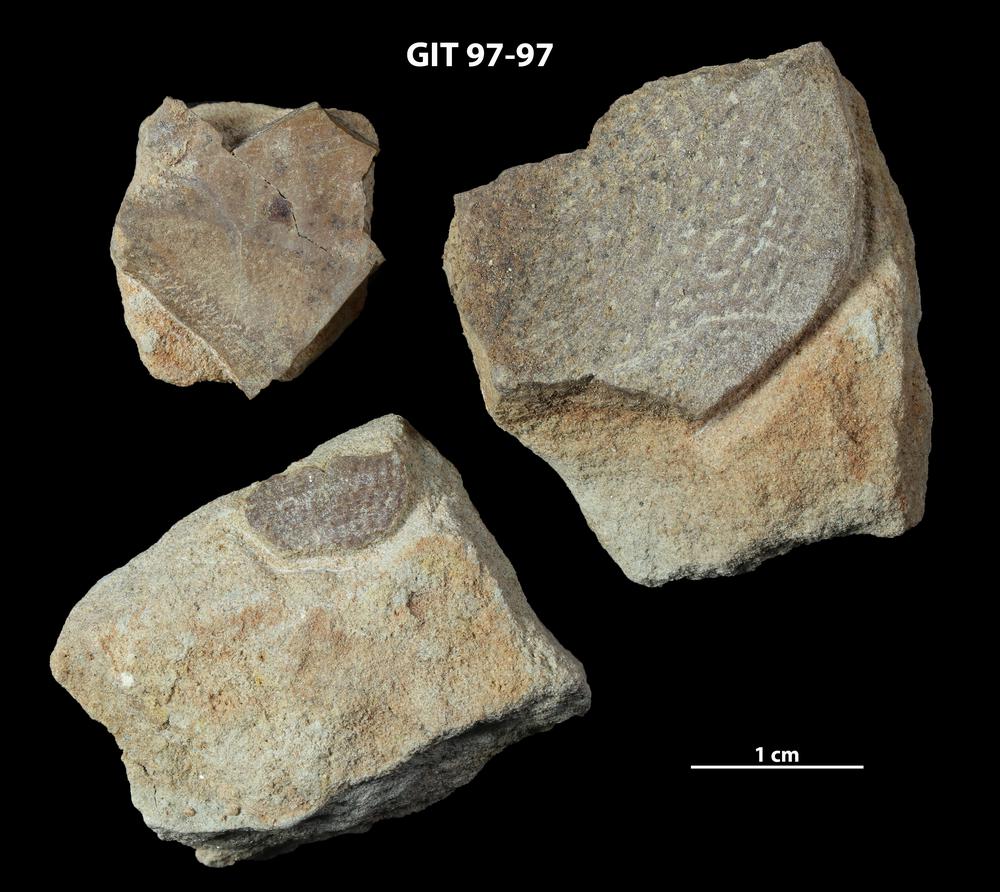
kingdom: Animalia
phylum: Chordata
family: Holonematidae
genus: Holonema
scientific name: Holonema
